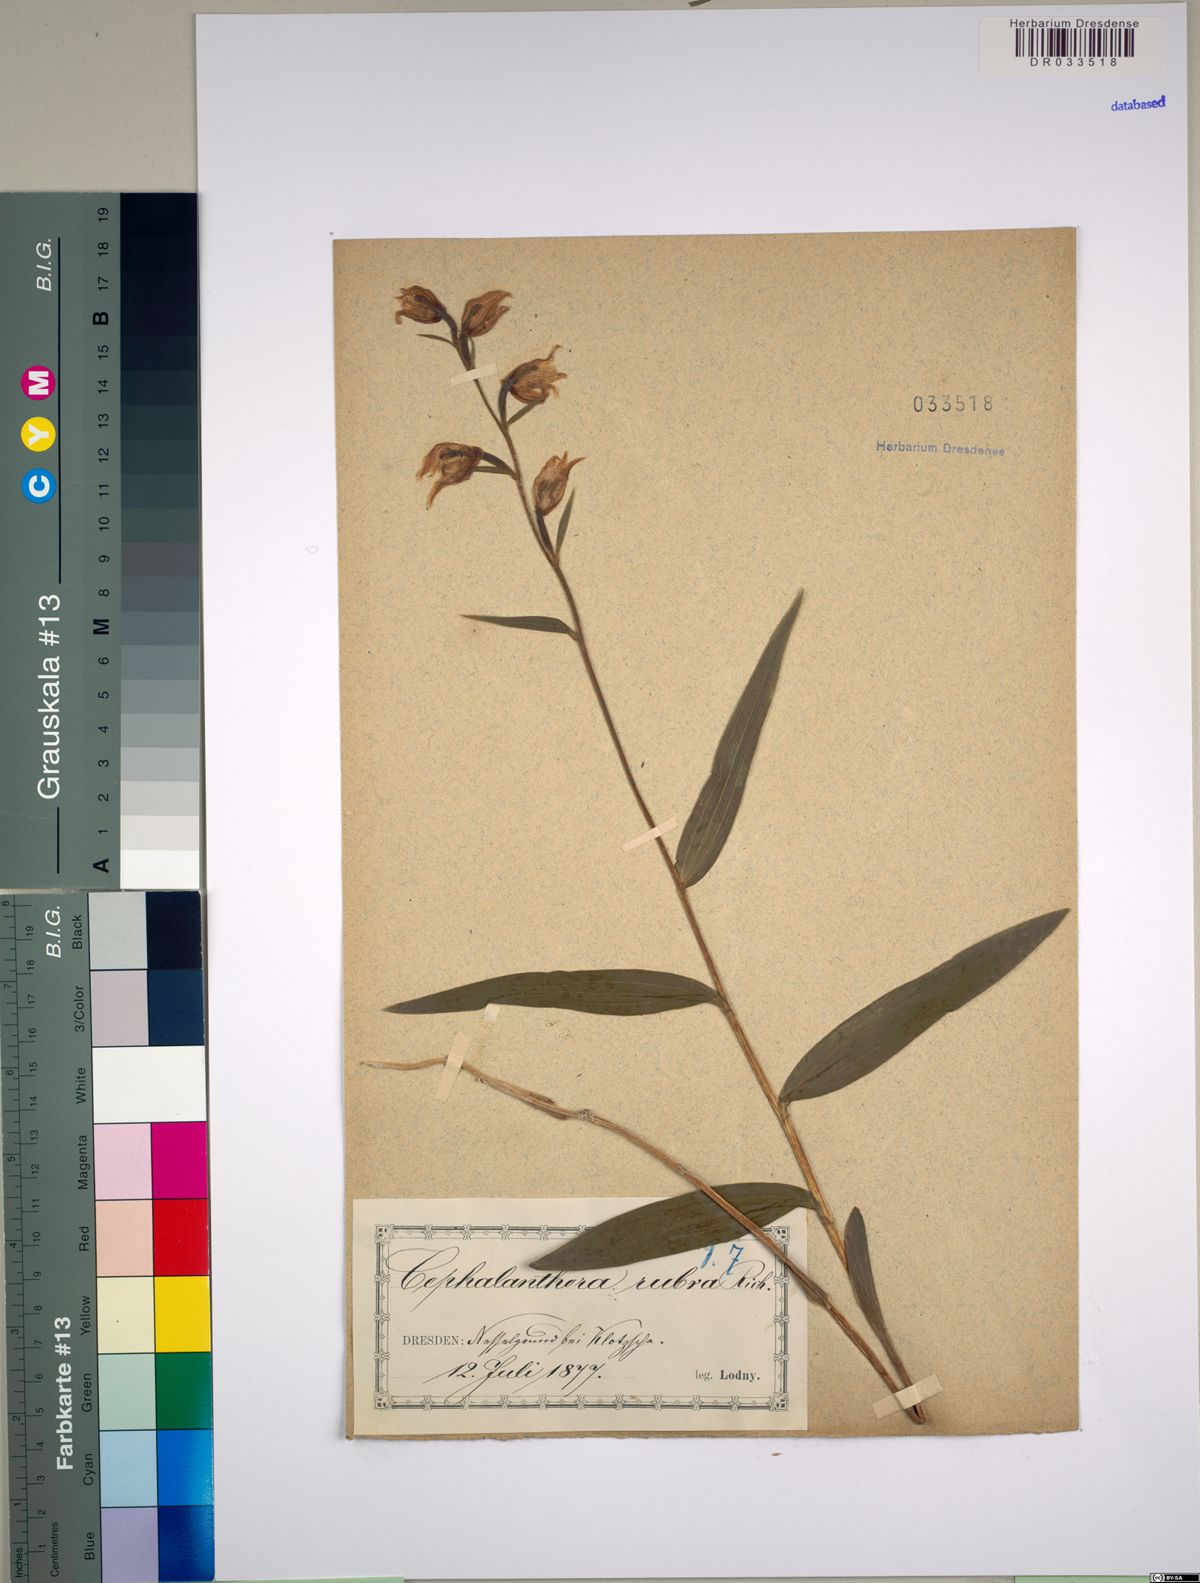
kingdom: Plantae
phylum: Tracheophyta
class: Liliopsida
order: Asparagales
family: Orchidaceae
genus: Cephalanthera
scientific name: Cephalanthera rubra
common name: Red helleborine
